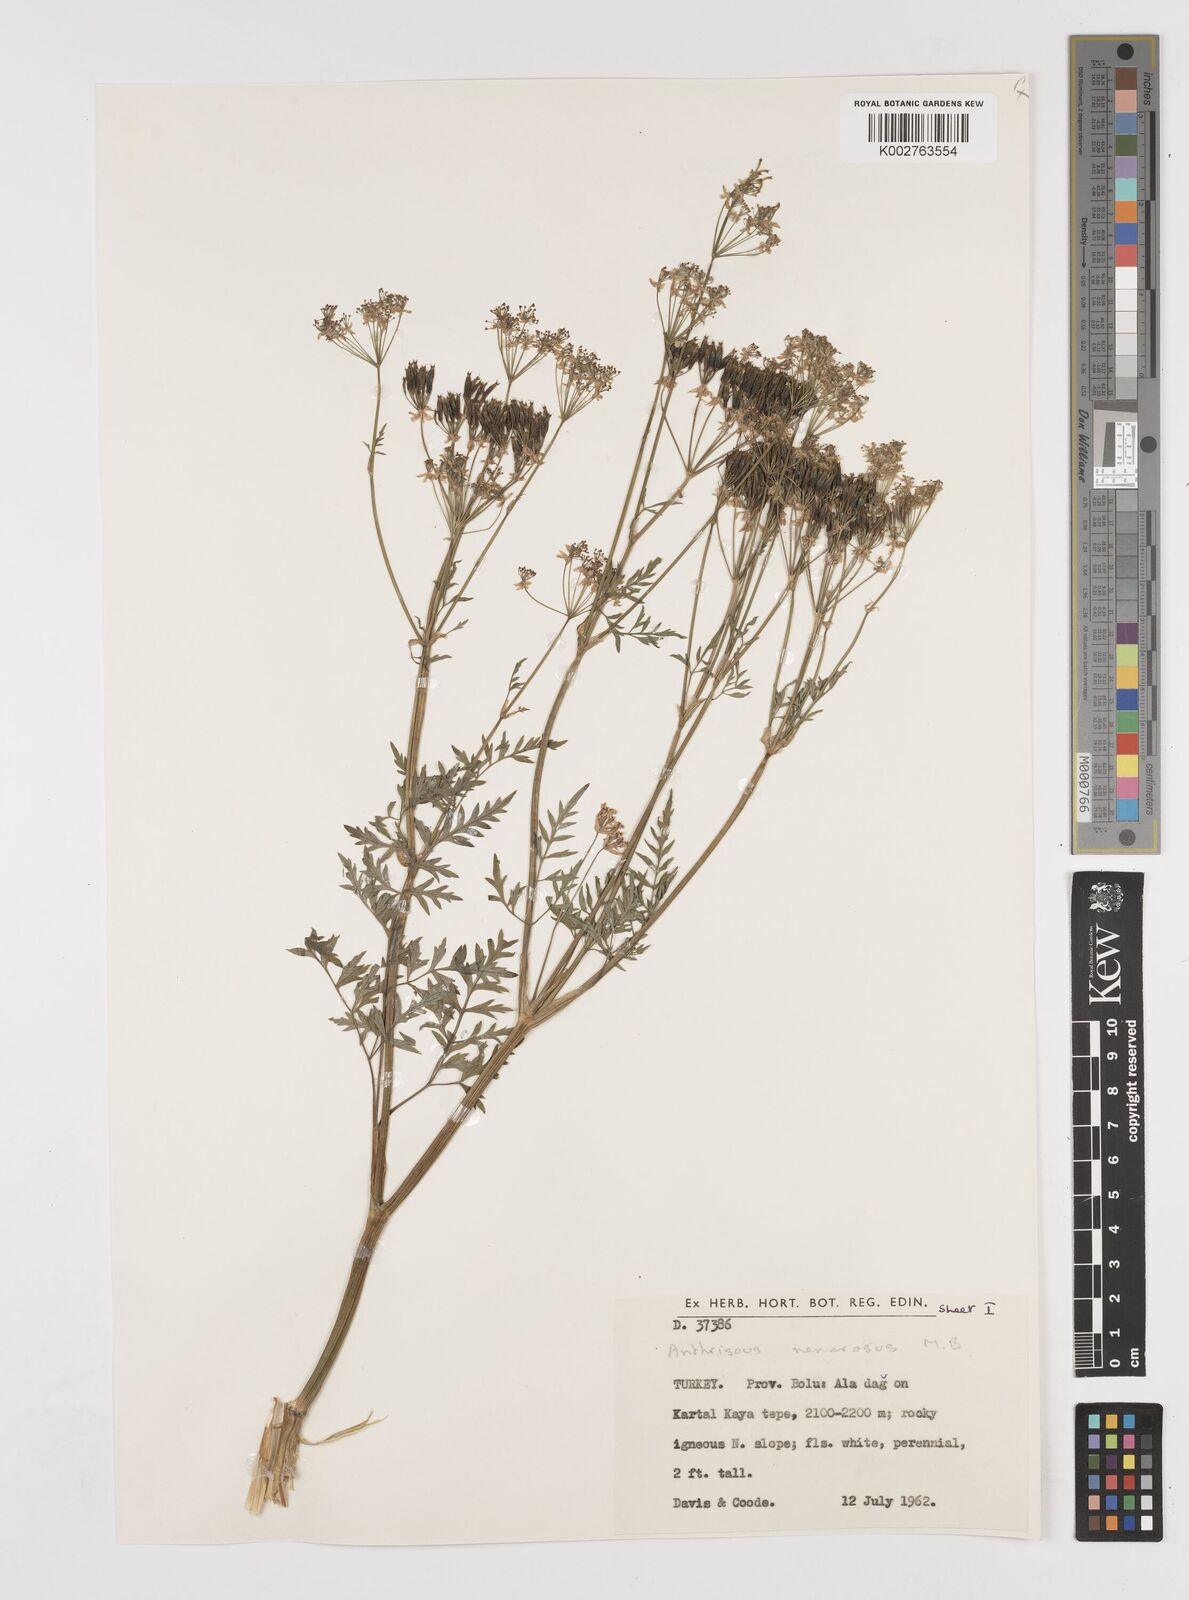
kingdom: Plantae
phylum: Tracheophyta
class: Magnoliopsida
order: Apiales
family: Apiaceae
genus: Anthriscus
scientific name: Anthriscus sylvestris
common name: Cow parsley
